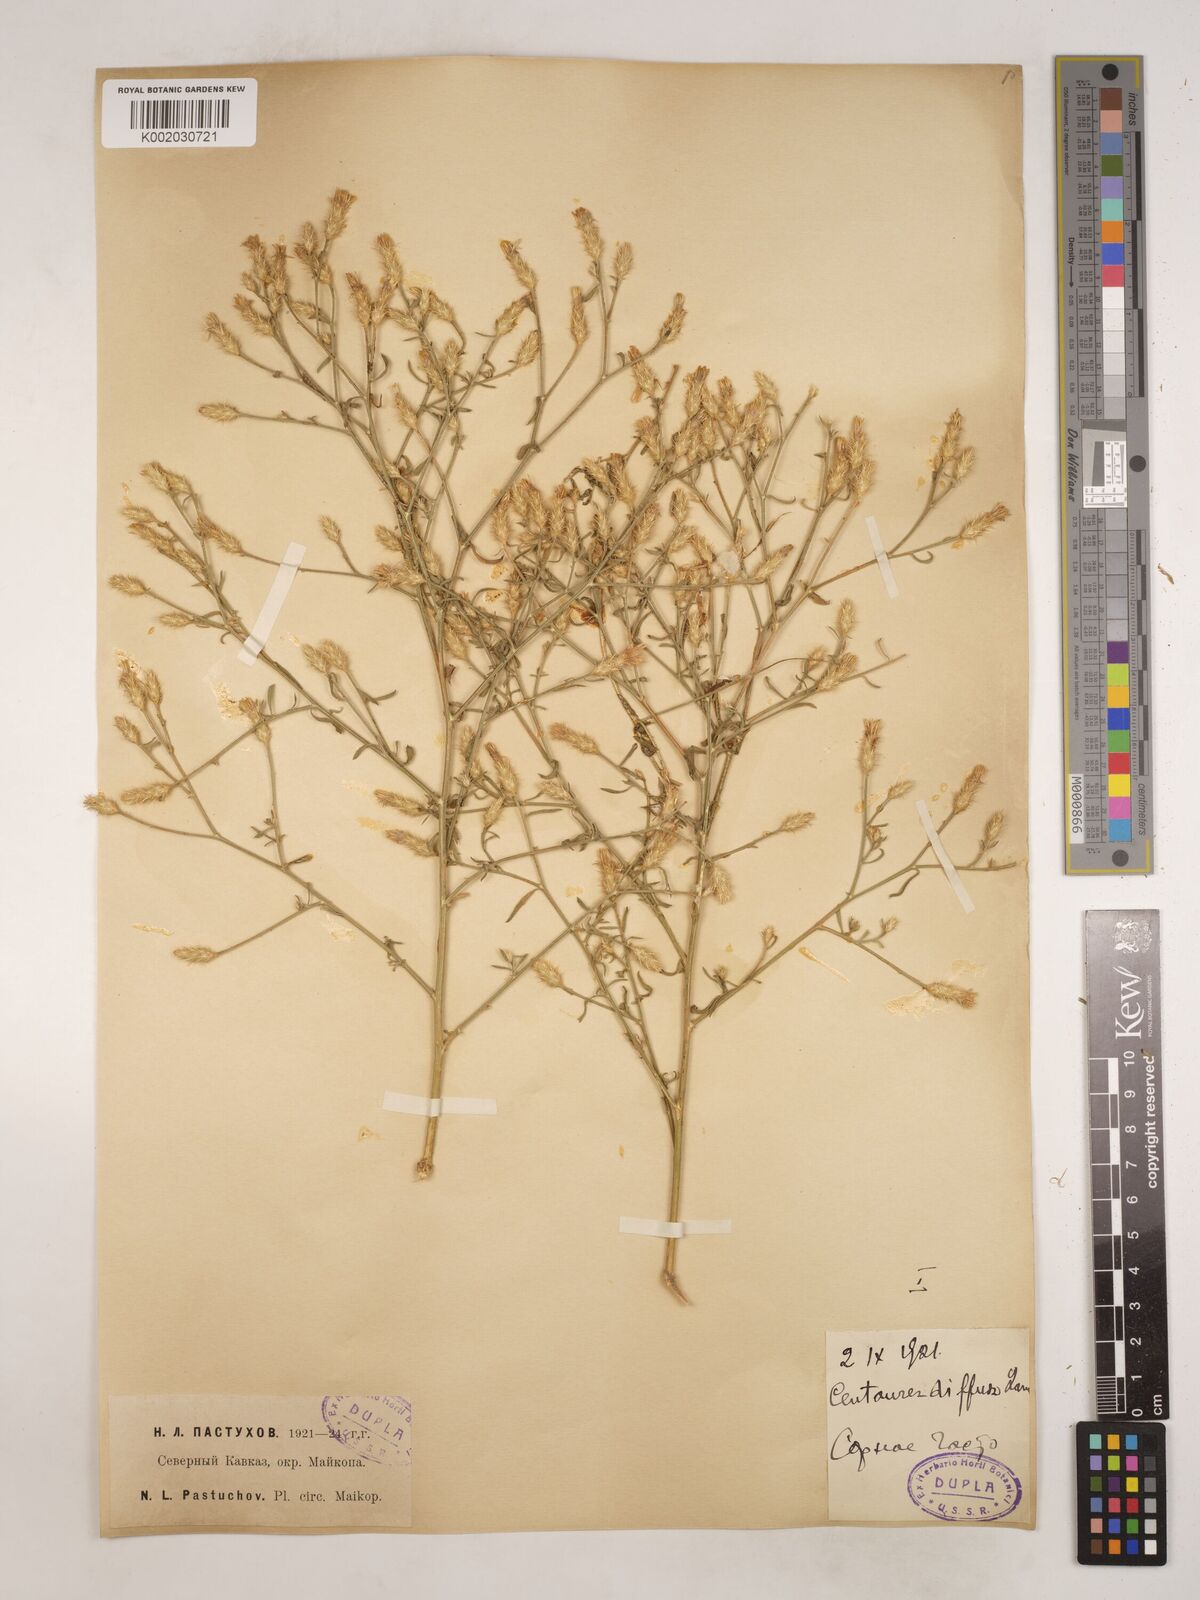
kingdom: Plantae
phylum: Tracheophyta
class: Magnoliopsida
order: Asterales
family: Asteraceae
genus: Centaurea
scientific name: Centaurea diffusa
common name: Diffuse knapweed
